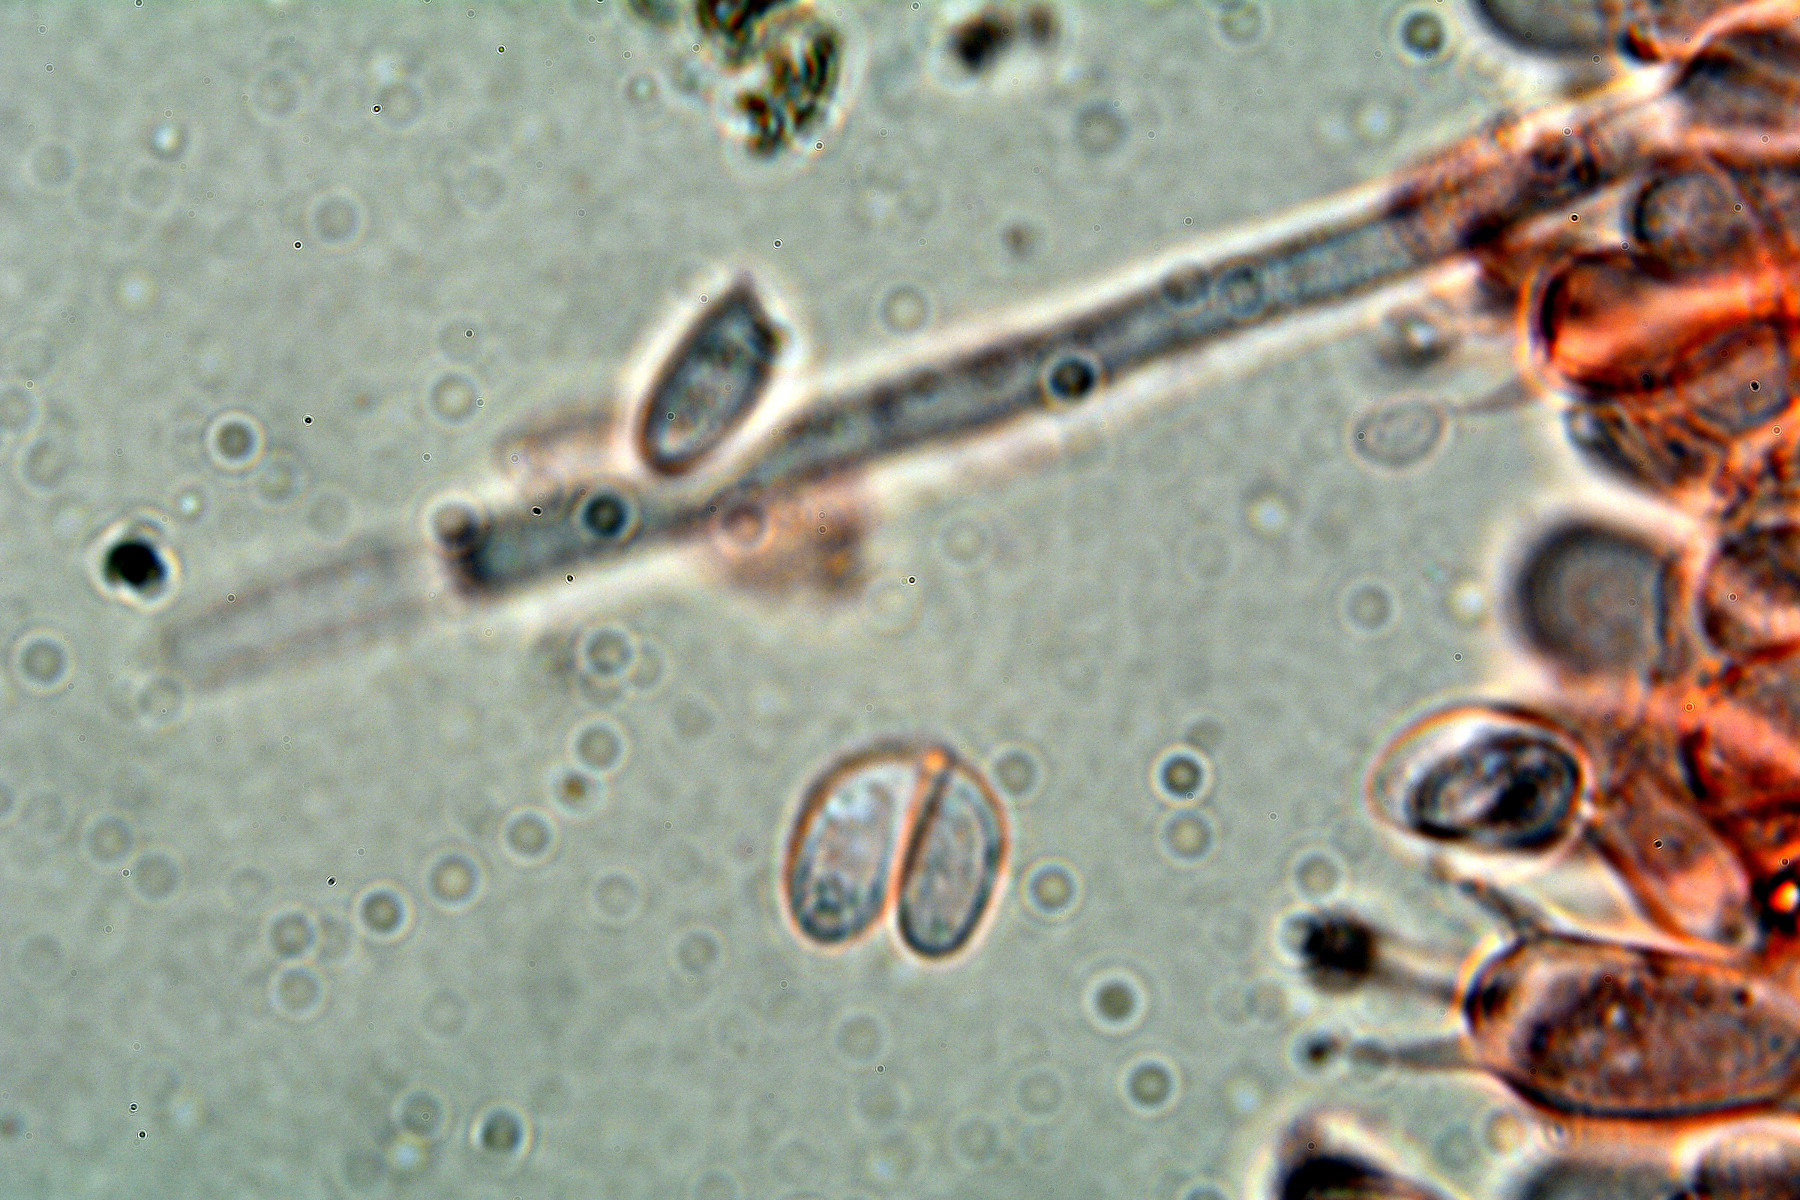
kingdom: Fungi
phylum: Basidiomycota
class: Agaricomycetes
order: Atheliales
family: Atheliaceae
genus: Athelia
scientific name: Athelia epiphylla
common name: almindelig barkhinde
